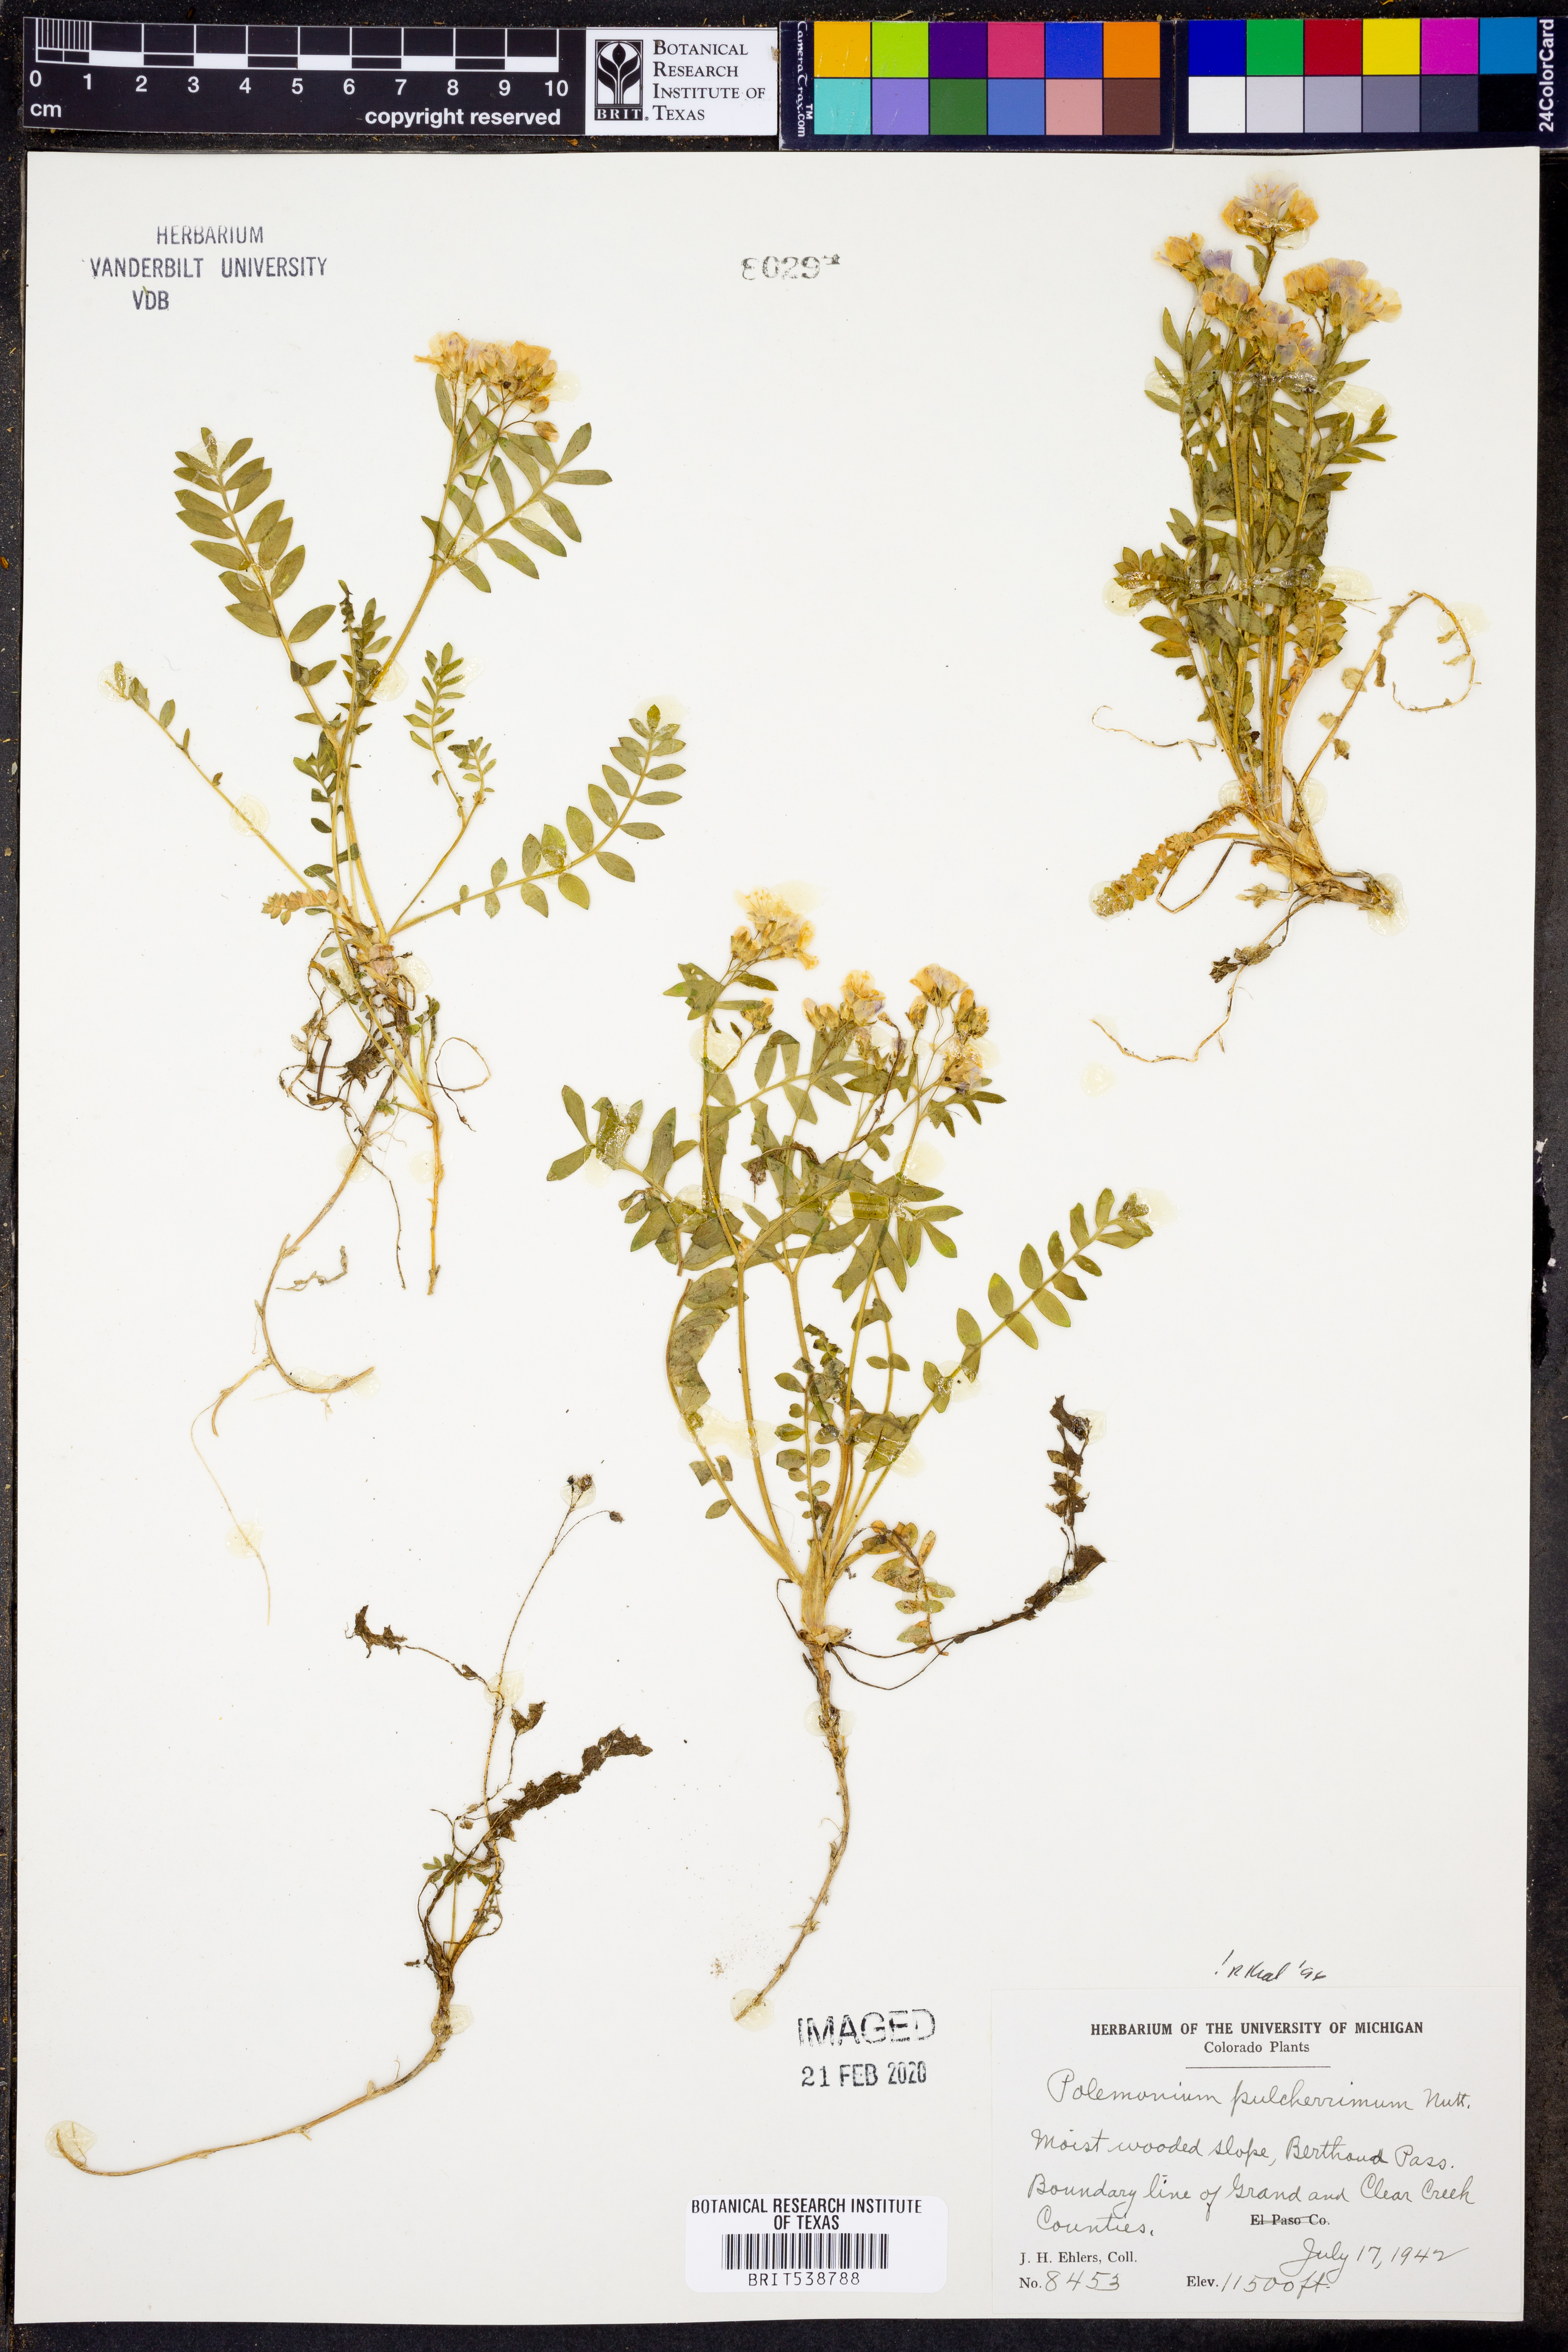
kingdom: Plantae
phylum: Tracheophyta
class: Magnoliopsida
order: Ericales
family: Polemoniaceae
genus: Polemonium
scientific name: Polemonium pulcherrimum
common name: Short jacob's-ladder
